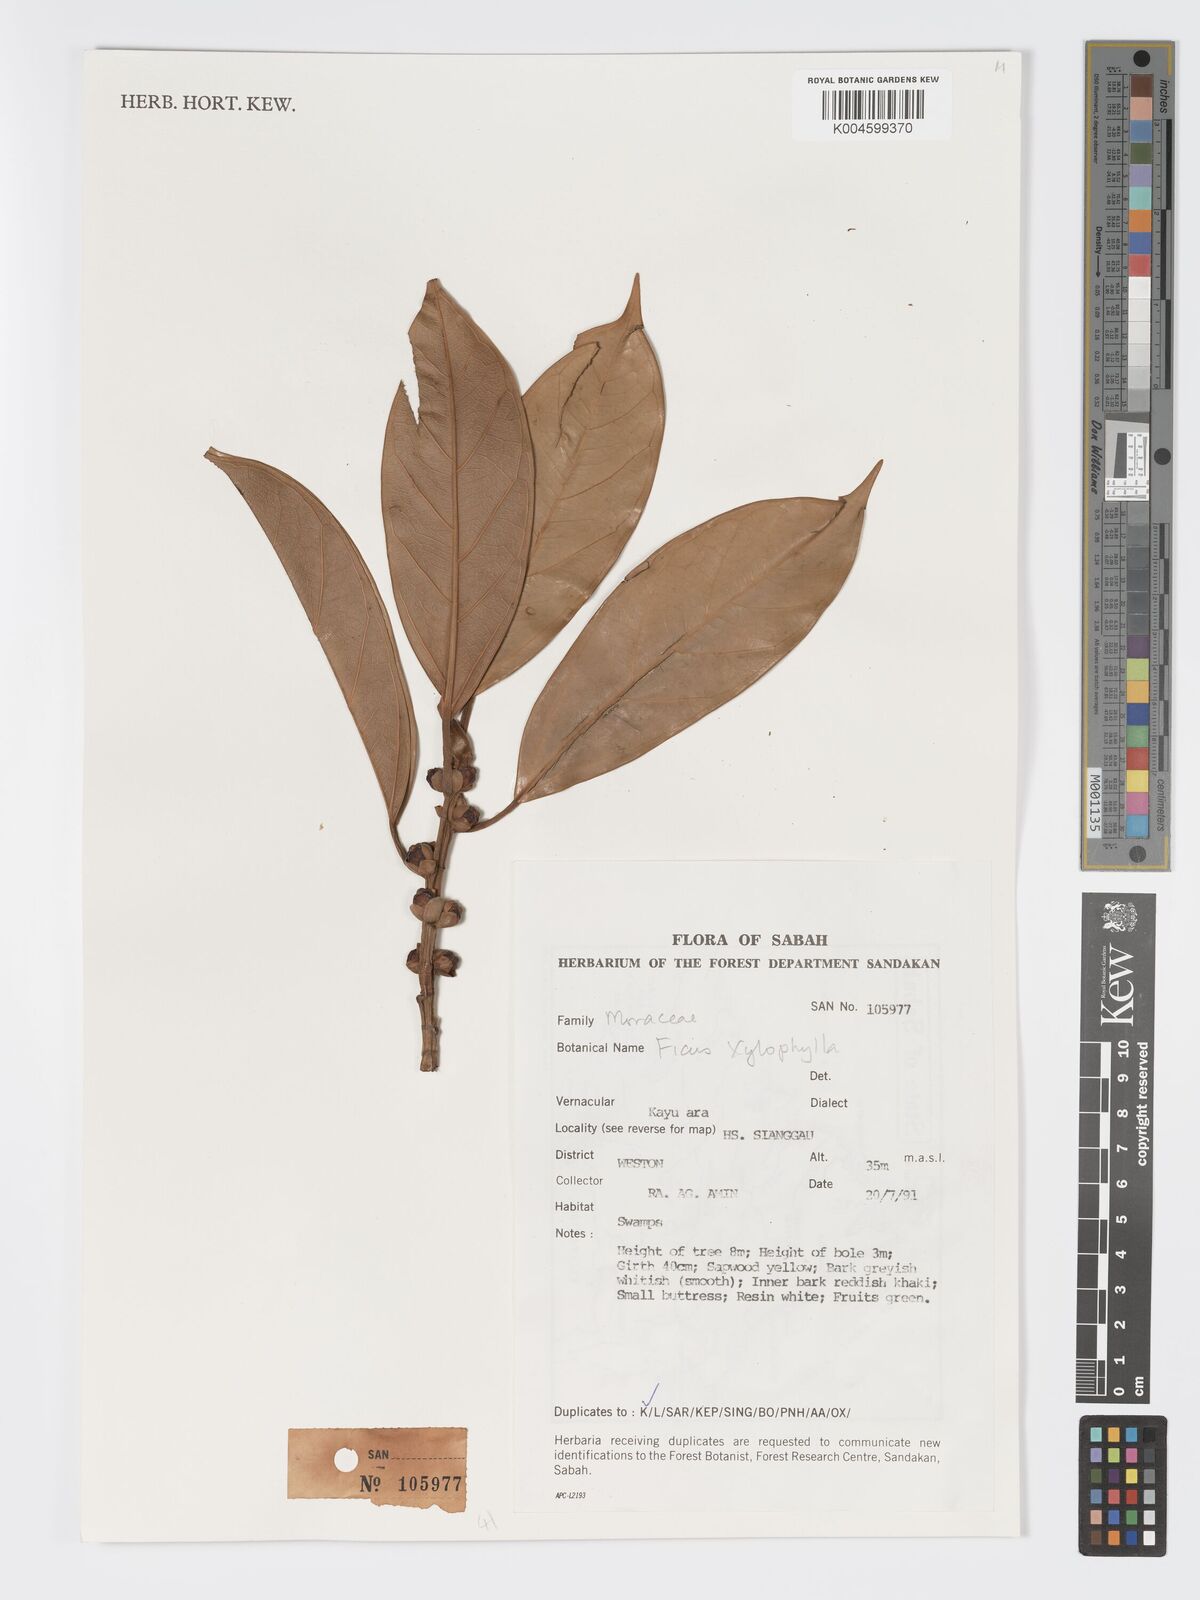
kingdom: Plantae
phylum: Tracheophyta
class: Magnoliopsida
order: Rosales
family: Moraceae
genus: Ficus
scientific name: Ficus xylophylla
